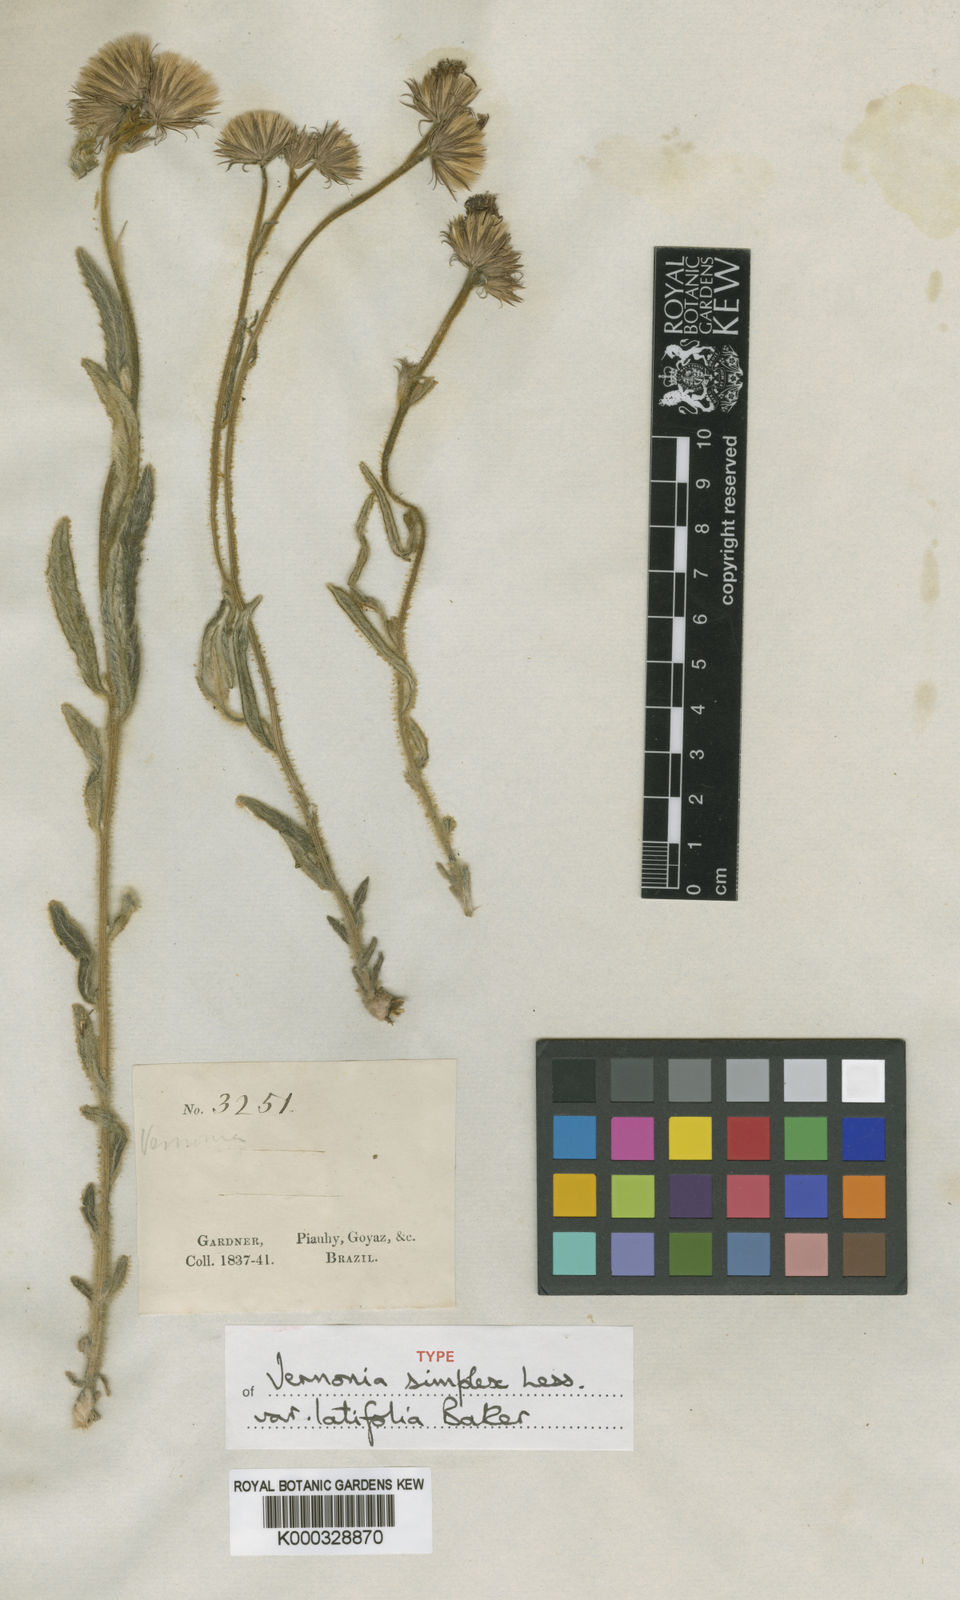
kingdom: Plantae
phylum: Tracheophyta
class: Magnoliopsida
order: Asterales
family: Asteraceae
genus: Chrysolaena
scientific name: Chrysolaena simplex
